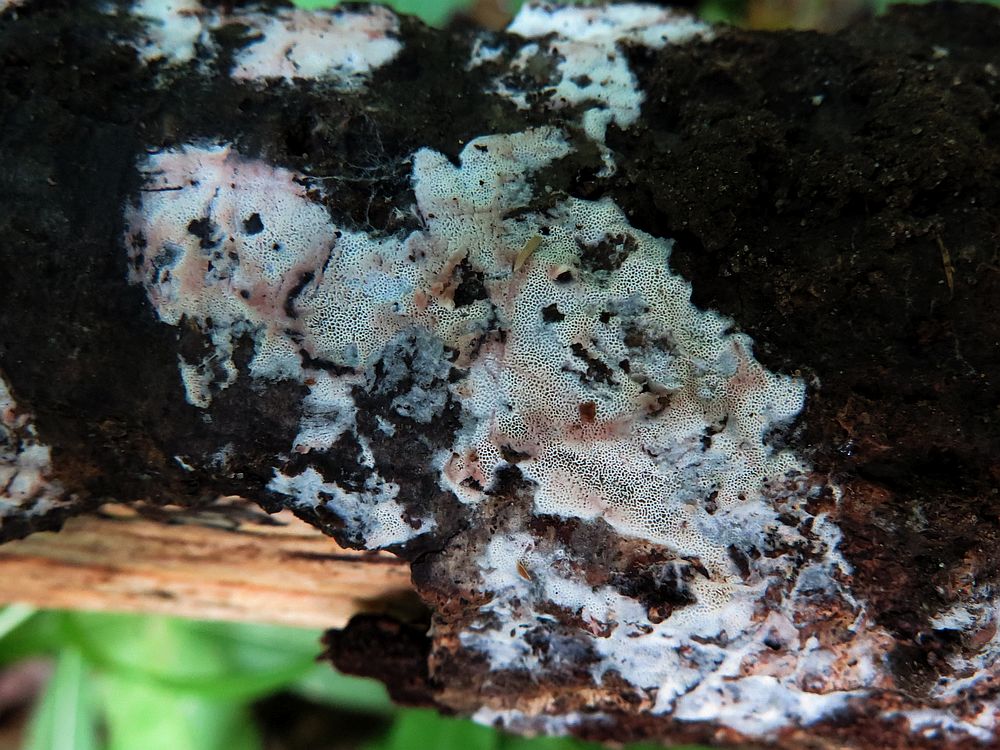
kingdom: Fungi
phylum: Basidiomycota
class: Agaricomycetes
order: Polyporales
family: Irpicaceae
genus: Ceriporia
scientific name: Ceriporia viridans
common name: foranderlig voksporesvamp
